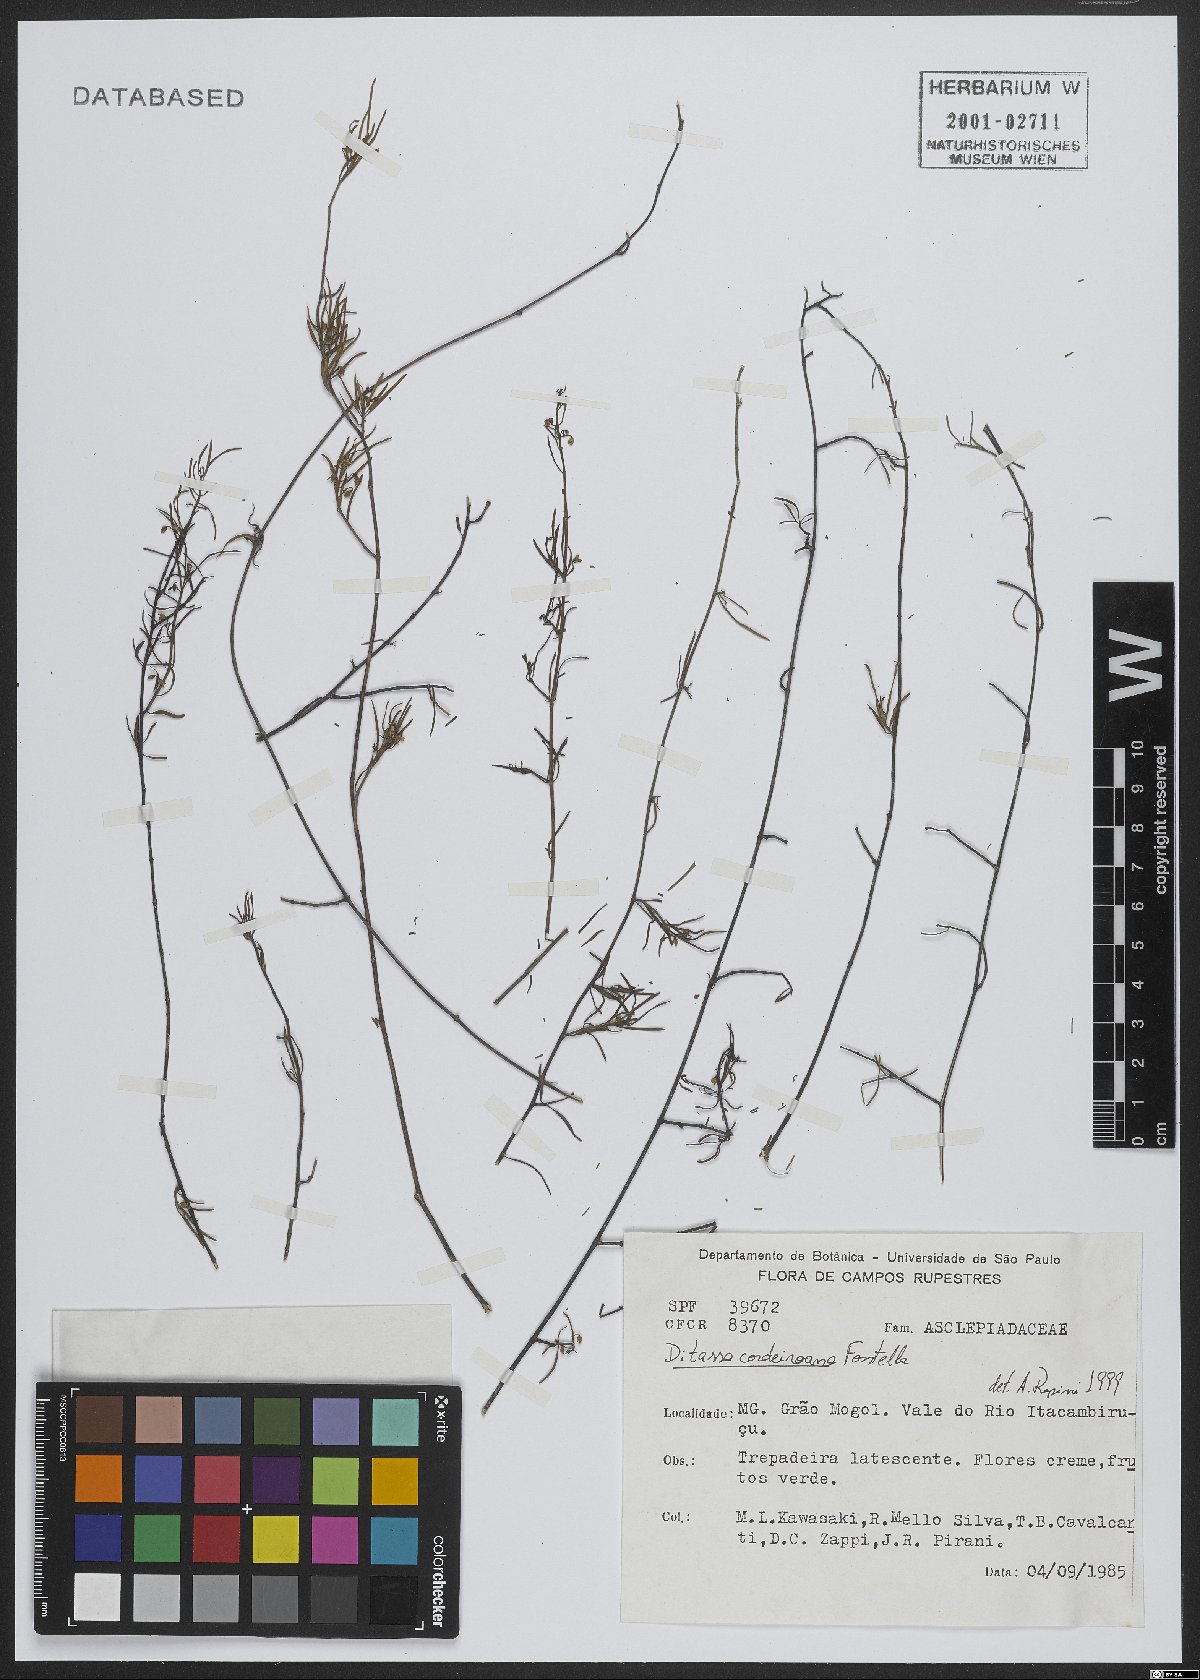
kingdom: Plantae
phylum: Tracheophyta
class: Magnoliopsida
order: Gentianales
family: Apocynaceae
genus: Ditassa
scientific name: Ditassa cordeiroana
